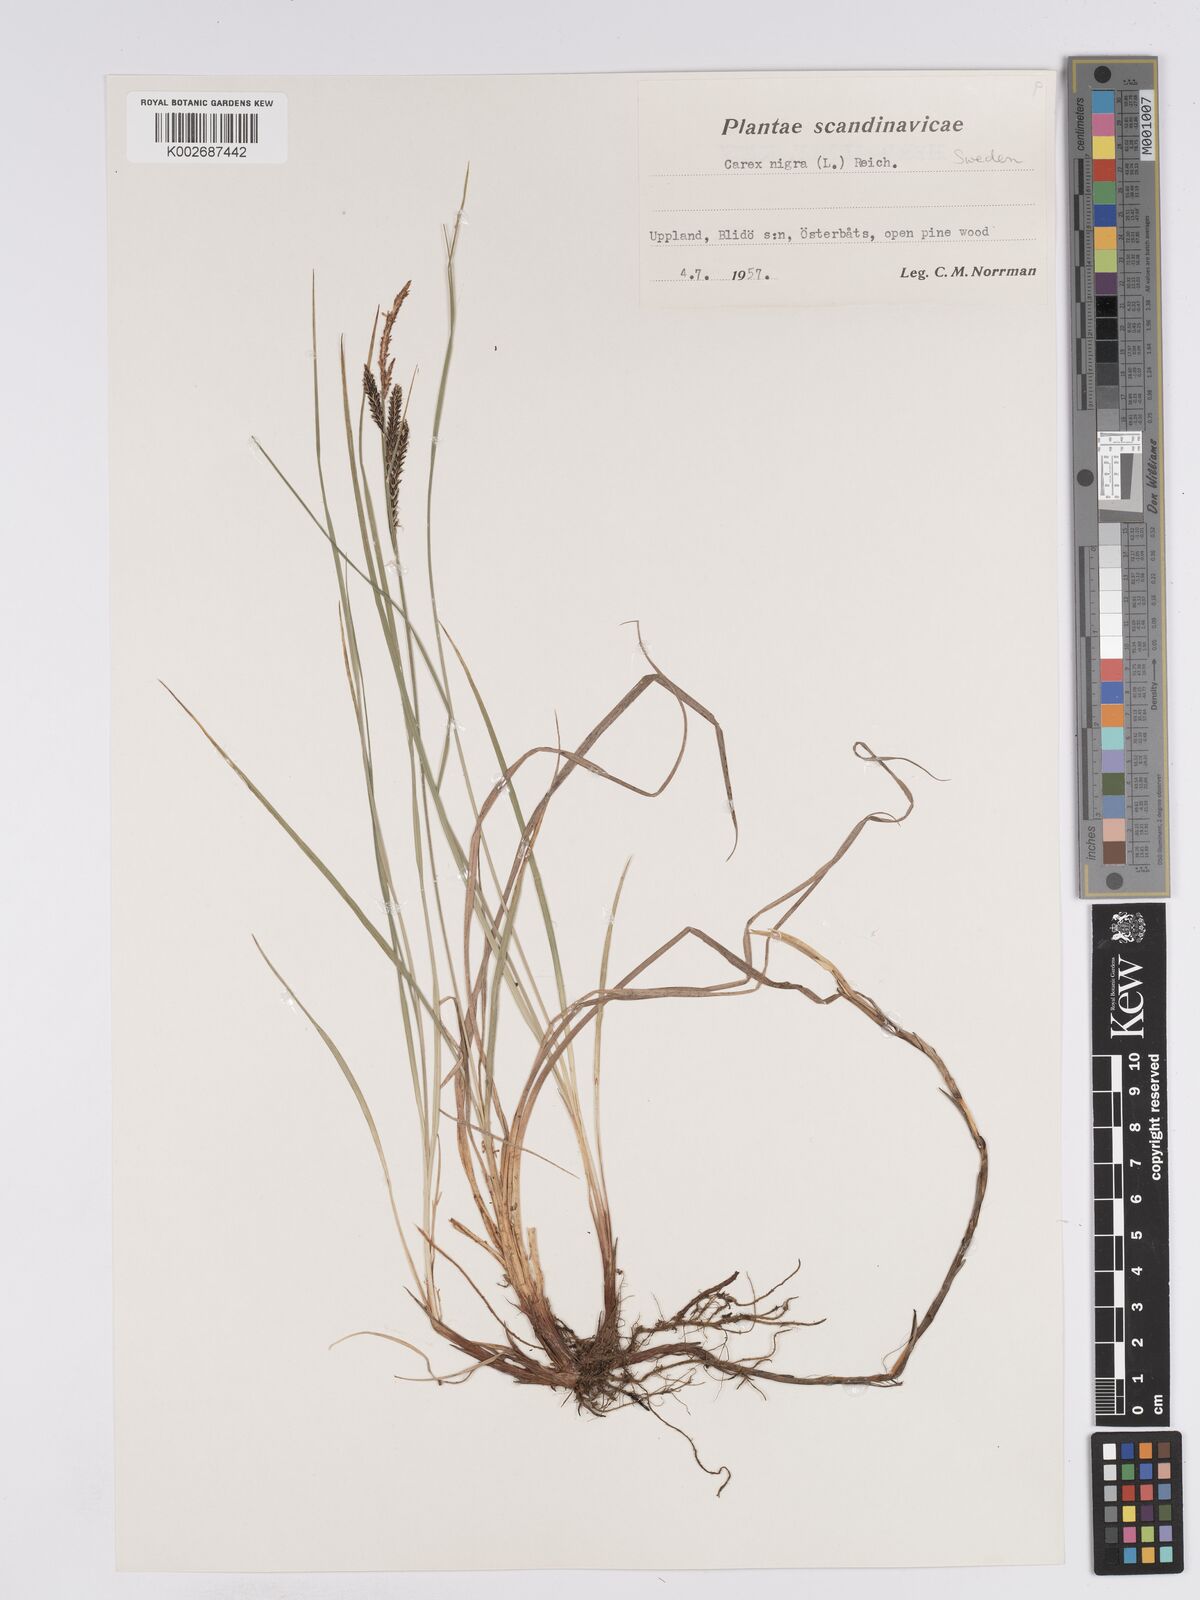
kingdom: Plantae
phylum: Tracheophyta
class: Liliopsida
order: Poales
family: Cyperaceae
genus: Carex
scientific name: Carex nigra
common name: Common sedge
